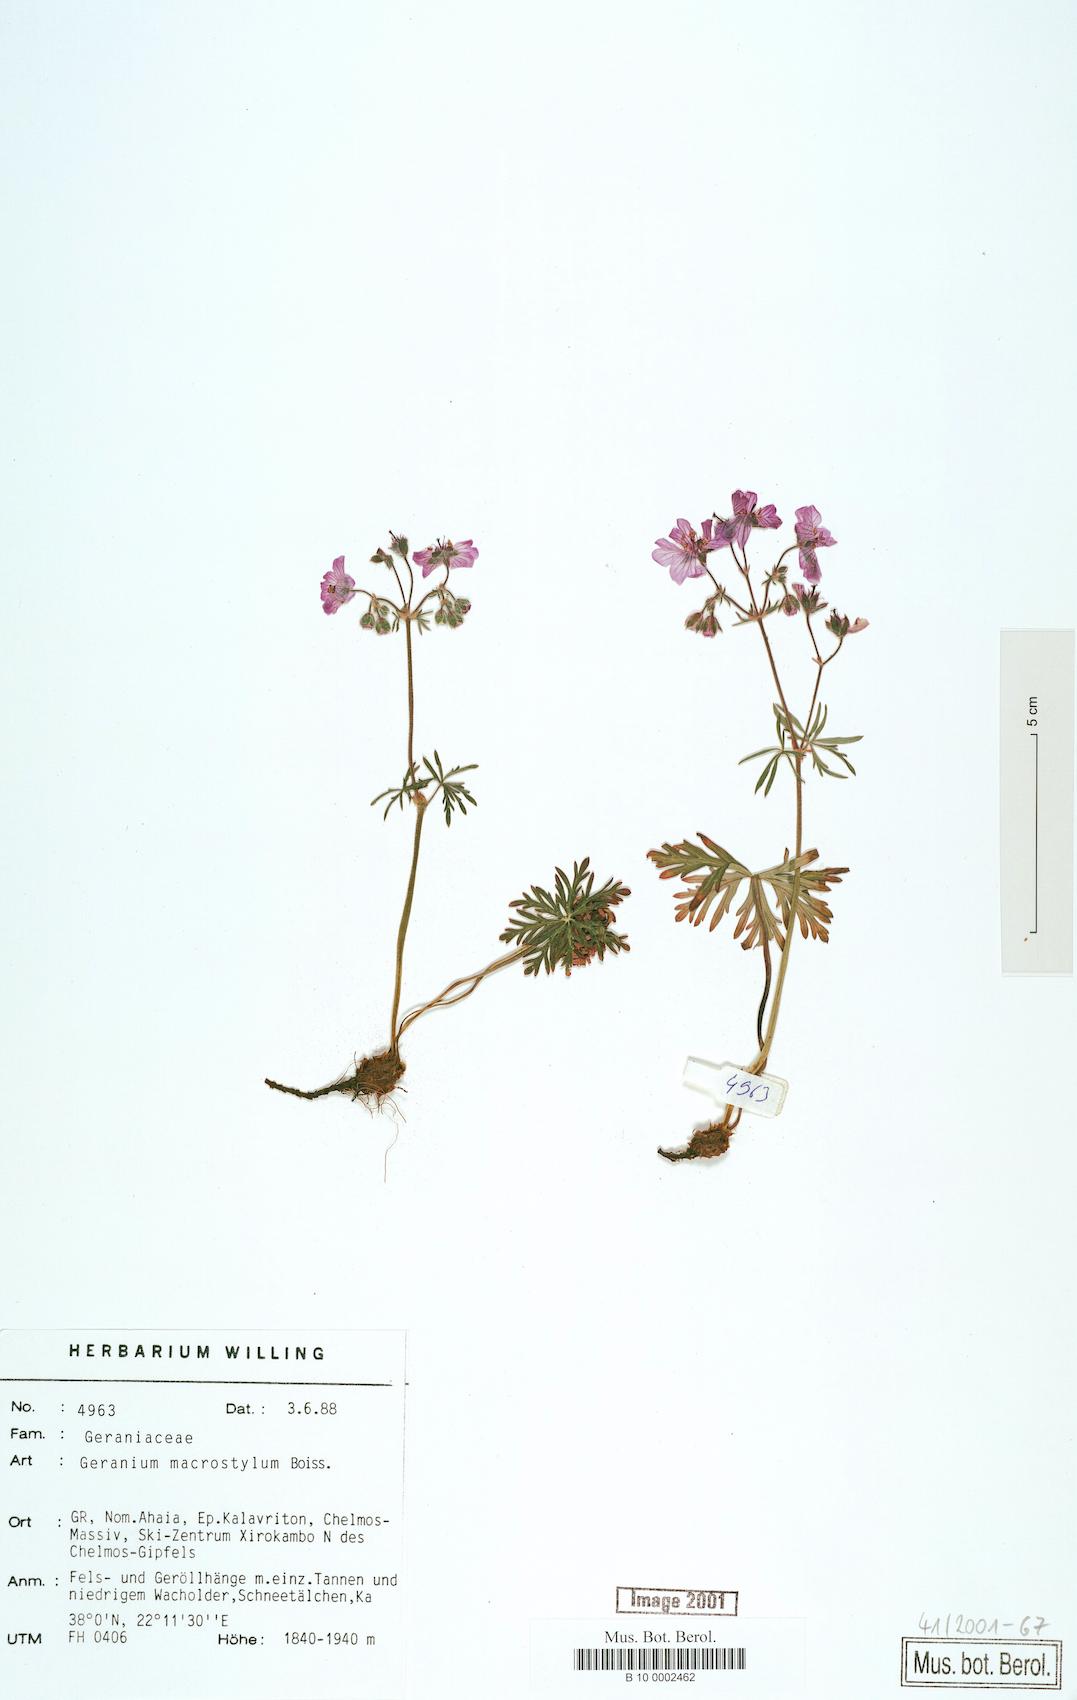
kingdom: Plantae
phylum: Tracheophyta
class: Magnoliopsida
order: Geraniales
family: Geraniaceae
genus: Geranium
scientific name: Geranium macrostylum
